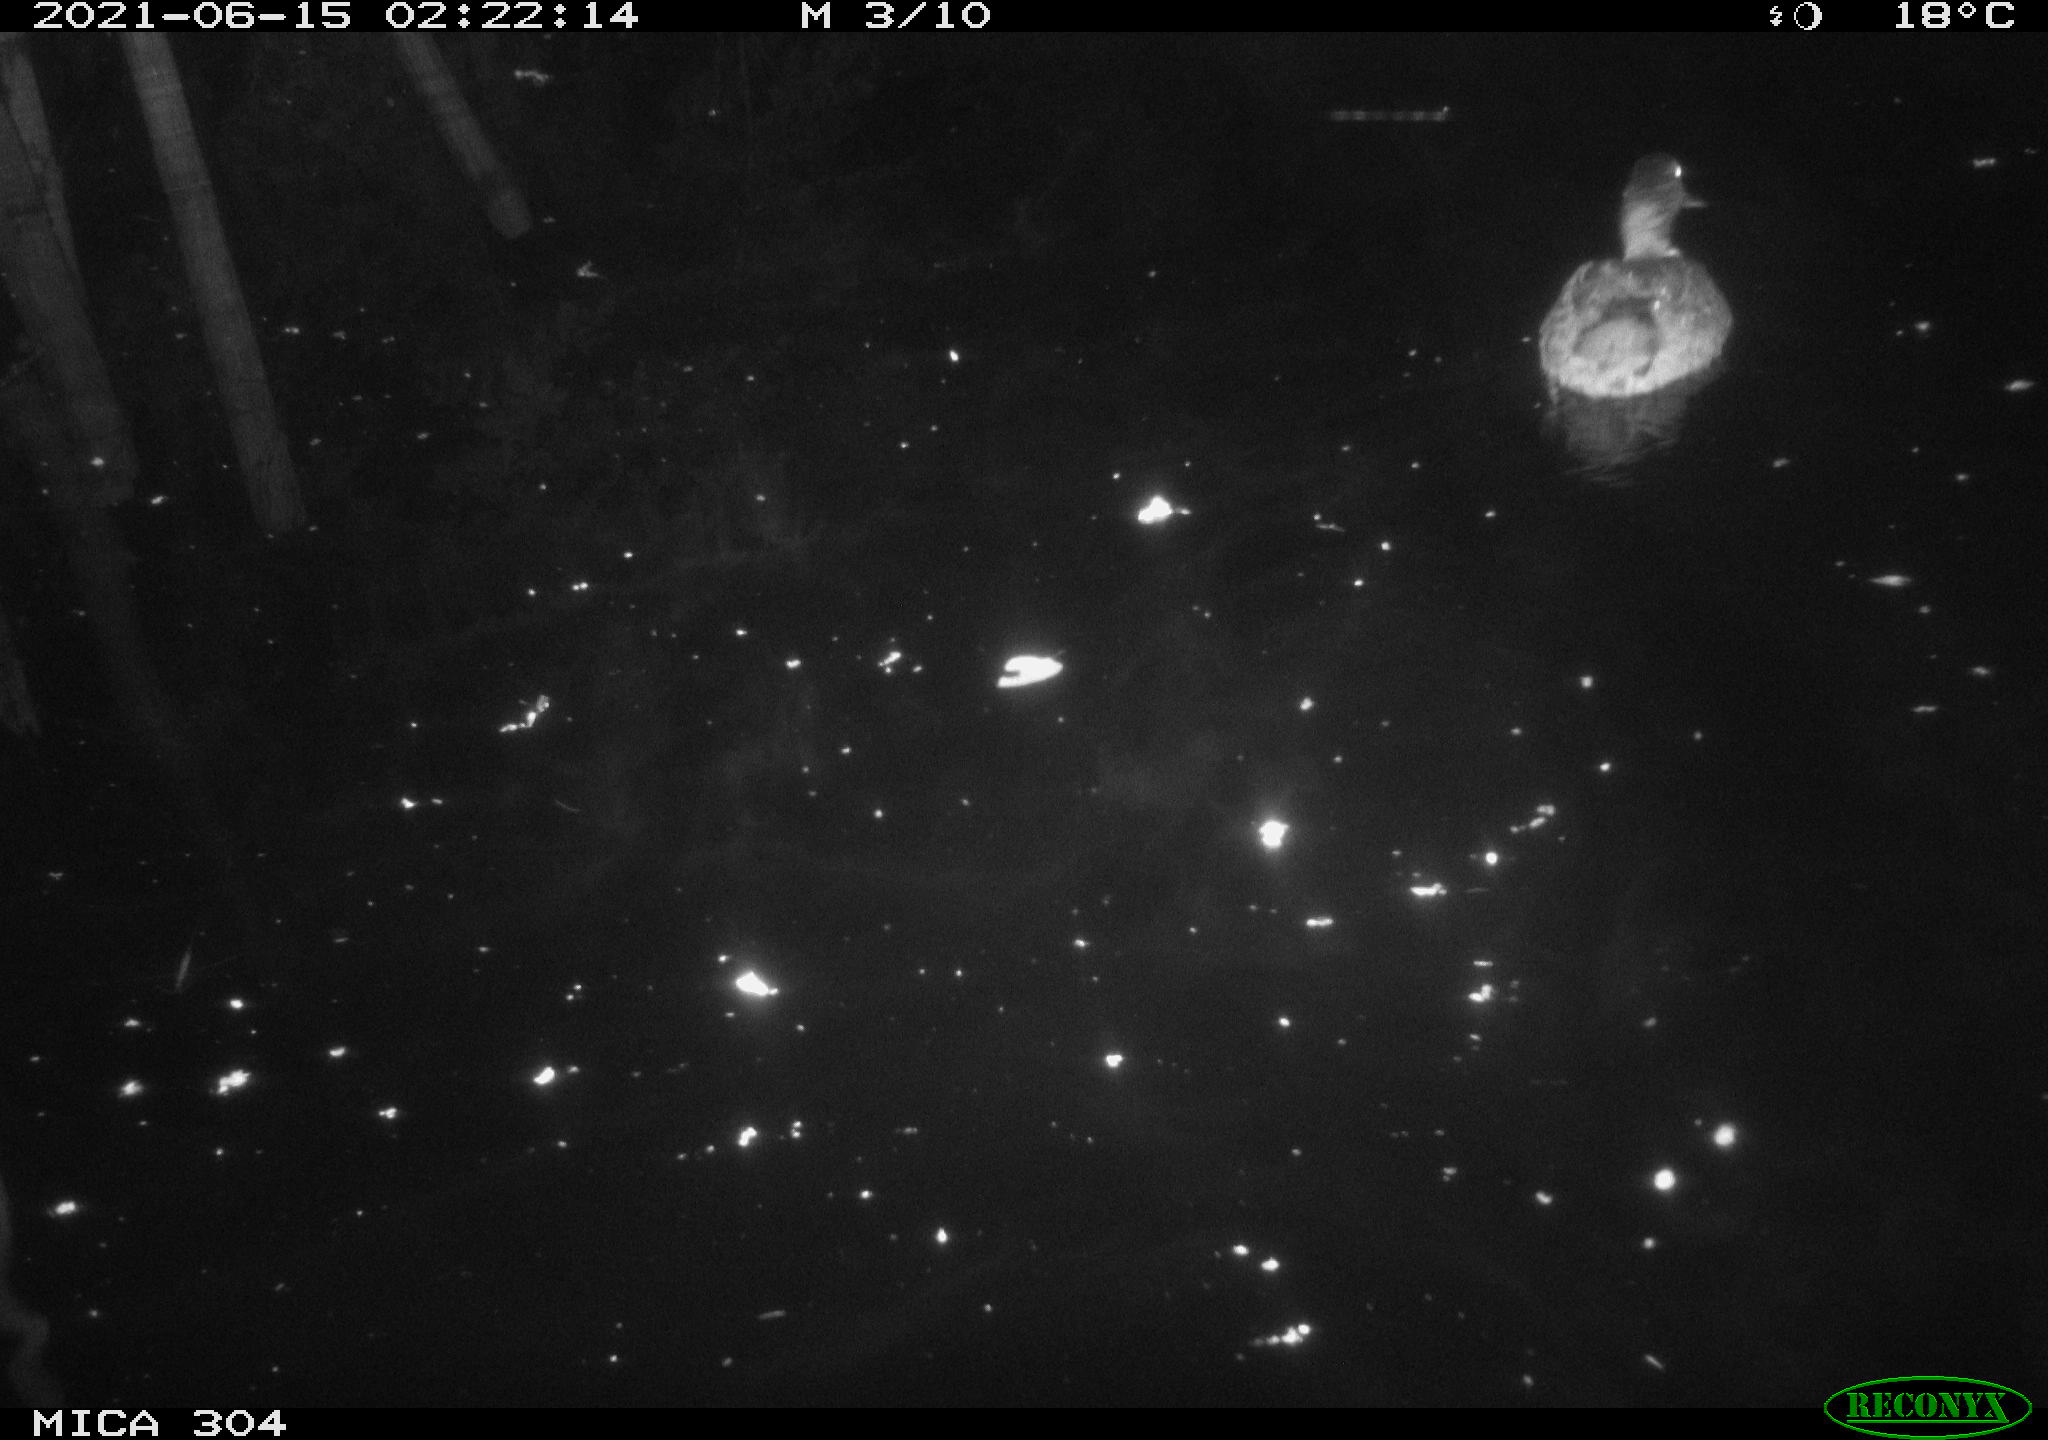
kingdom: Animalia
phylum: Chordata
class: Aves
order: Anseriformes
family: Anatidae
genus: Anas
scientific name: Anas platyrhynchos
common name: Mallard
